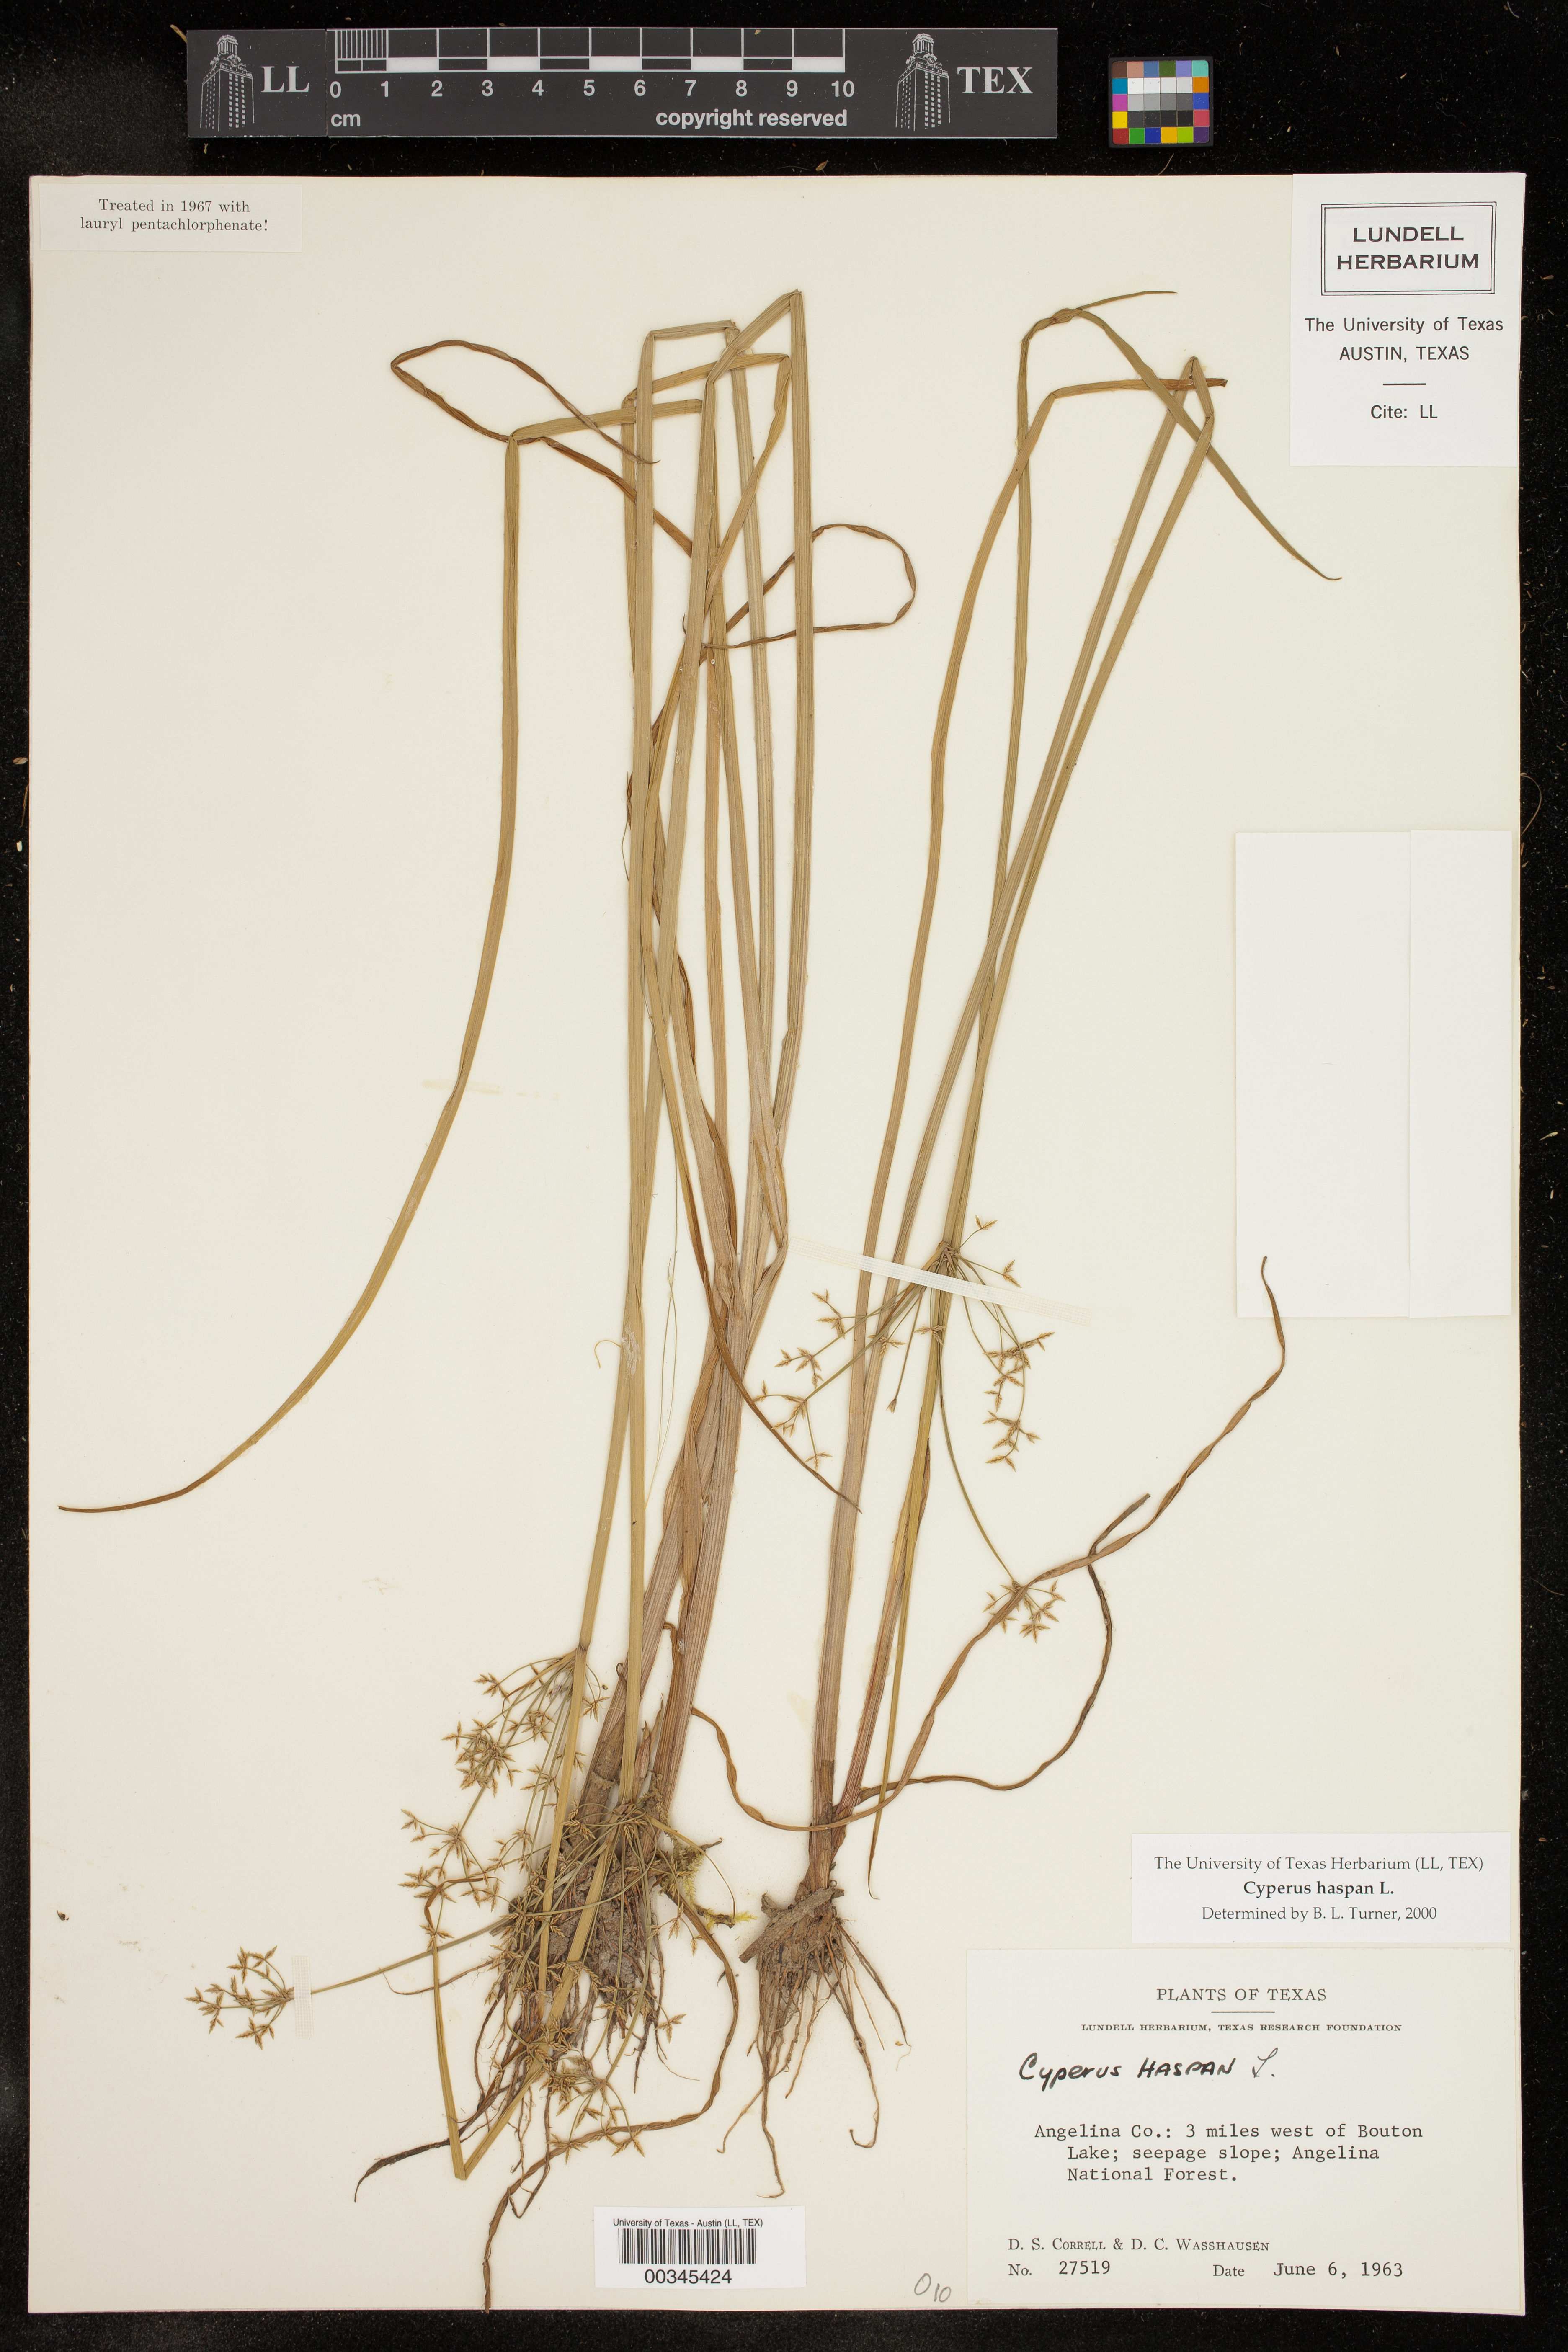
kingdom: Plantae
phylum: Tracheophyta
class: Liliopsida
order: Poales
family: Cyperaceae
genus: Cyperus
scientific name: Cyperus haspan
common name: Haspan flatsedge
